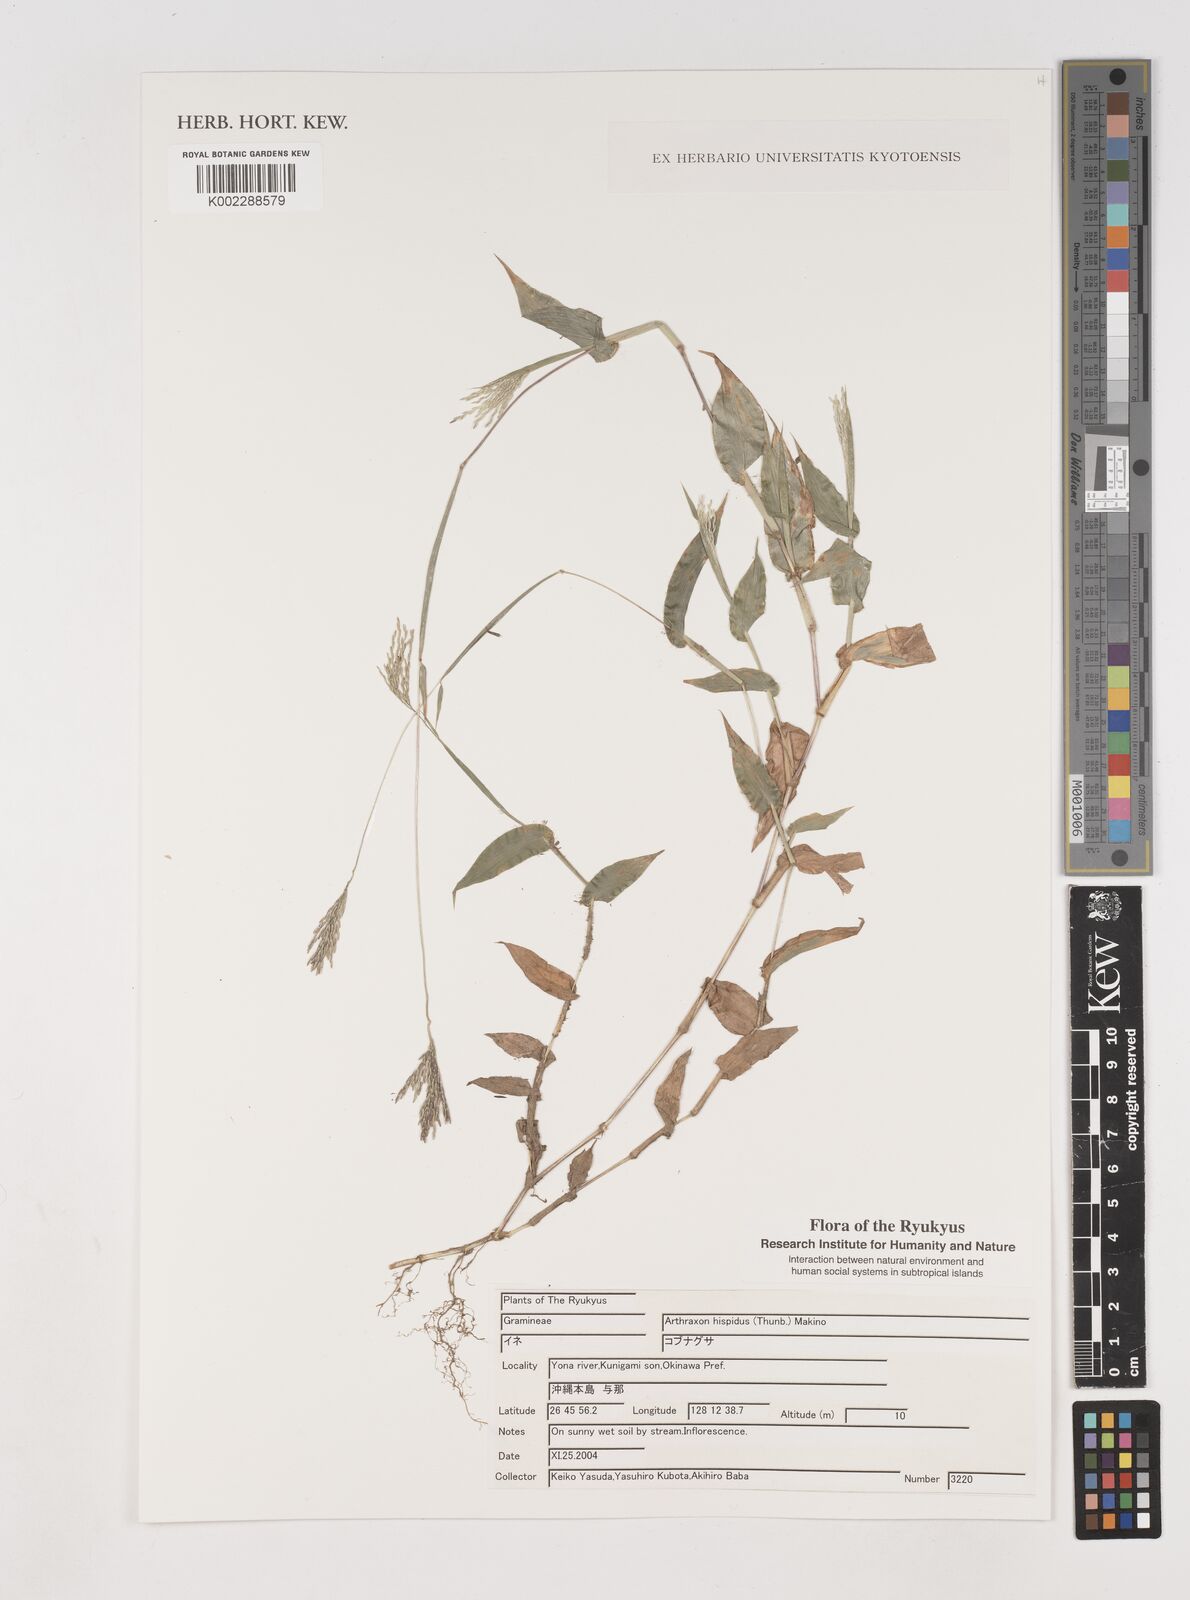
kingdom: Plantae
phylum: Tracheophyta
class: Liliopsida
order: Poales
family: Poaceae
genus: Arthraxon
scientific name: Arthraxon hispidus
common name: Small carpgrass
